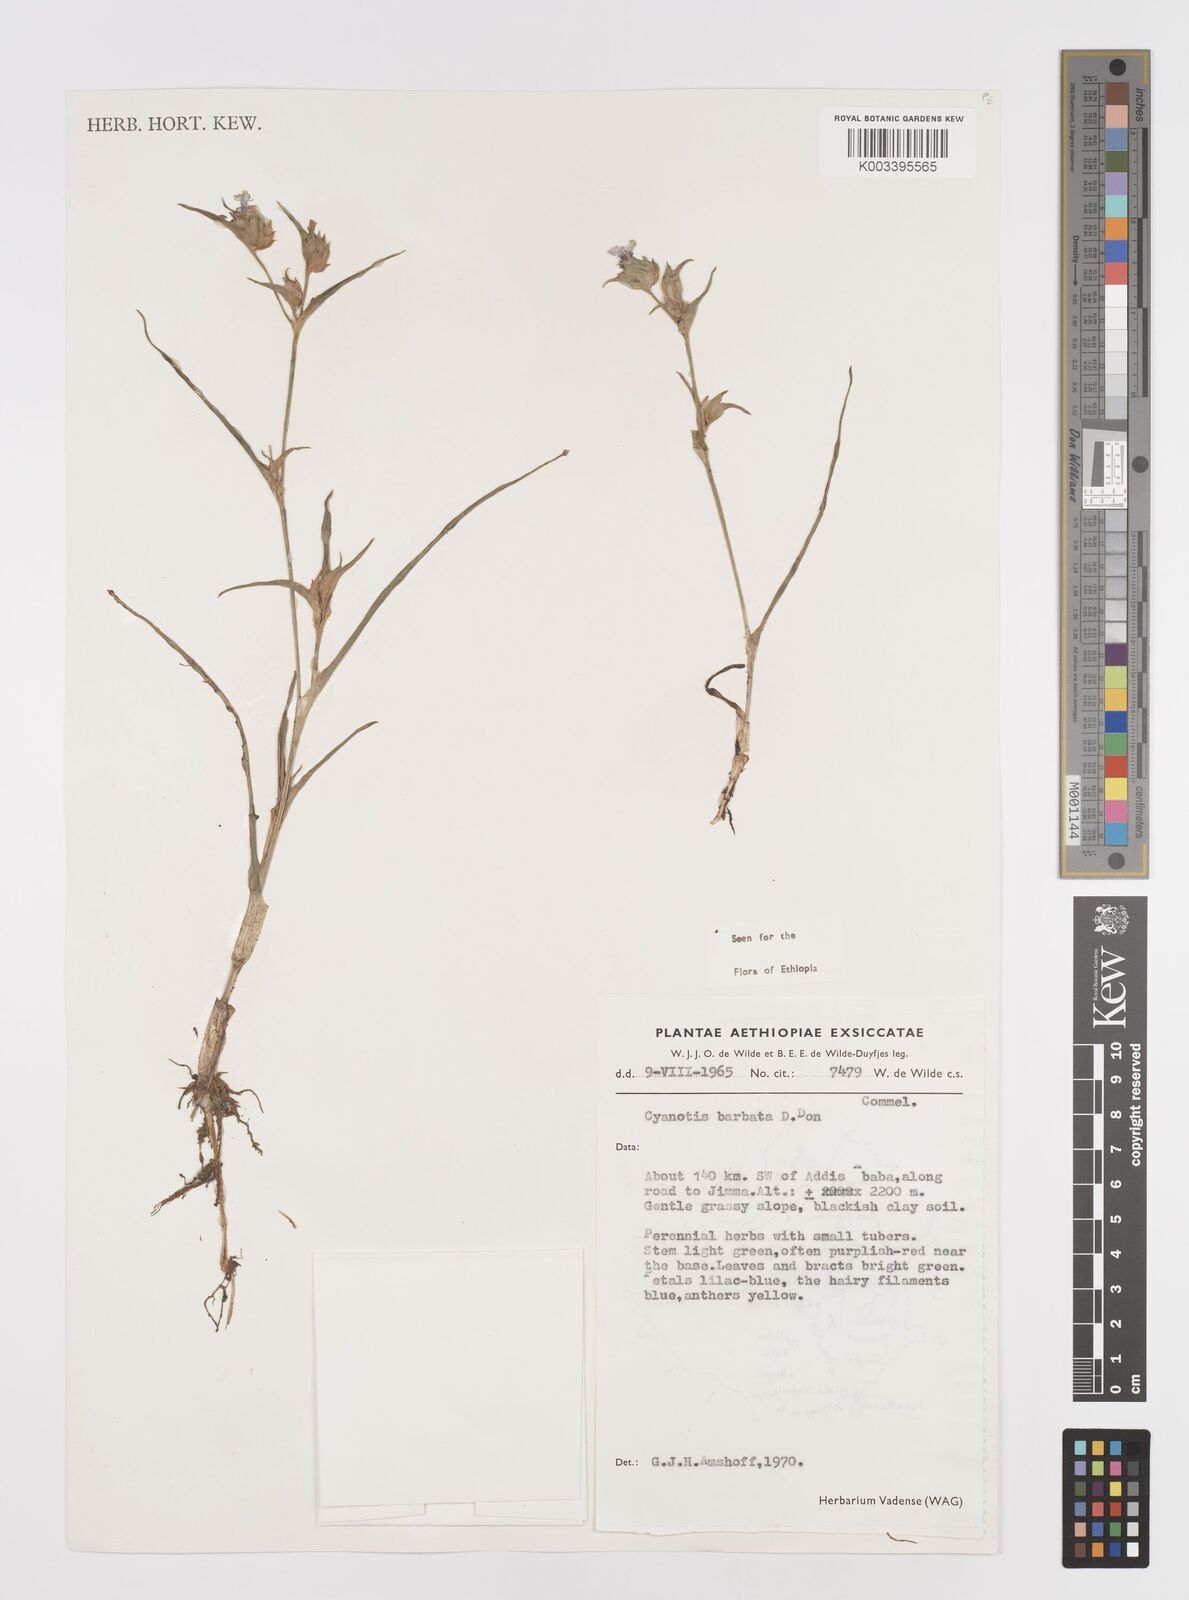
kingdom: Plantae
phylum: Tracheophyta
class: Liliopsida
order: Commelinales
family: Commelinaceae
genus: Cyanotis
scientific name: Cyanotis vaga
